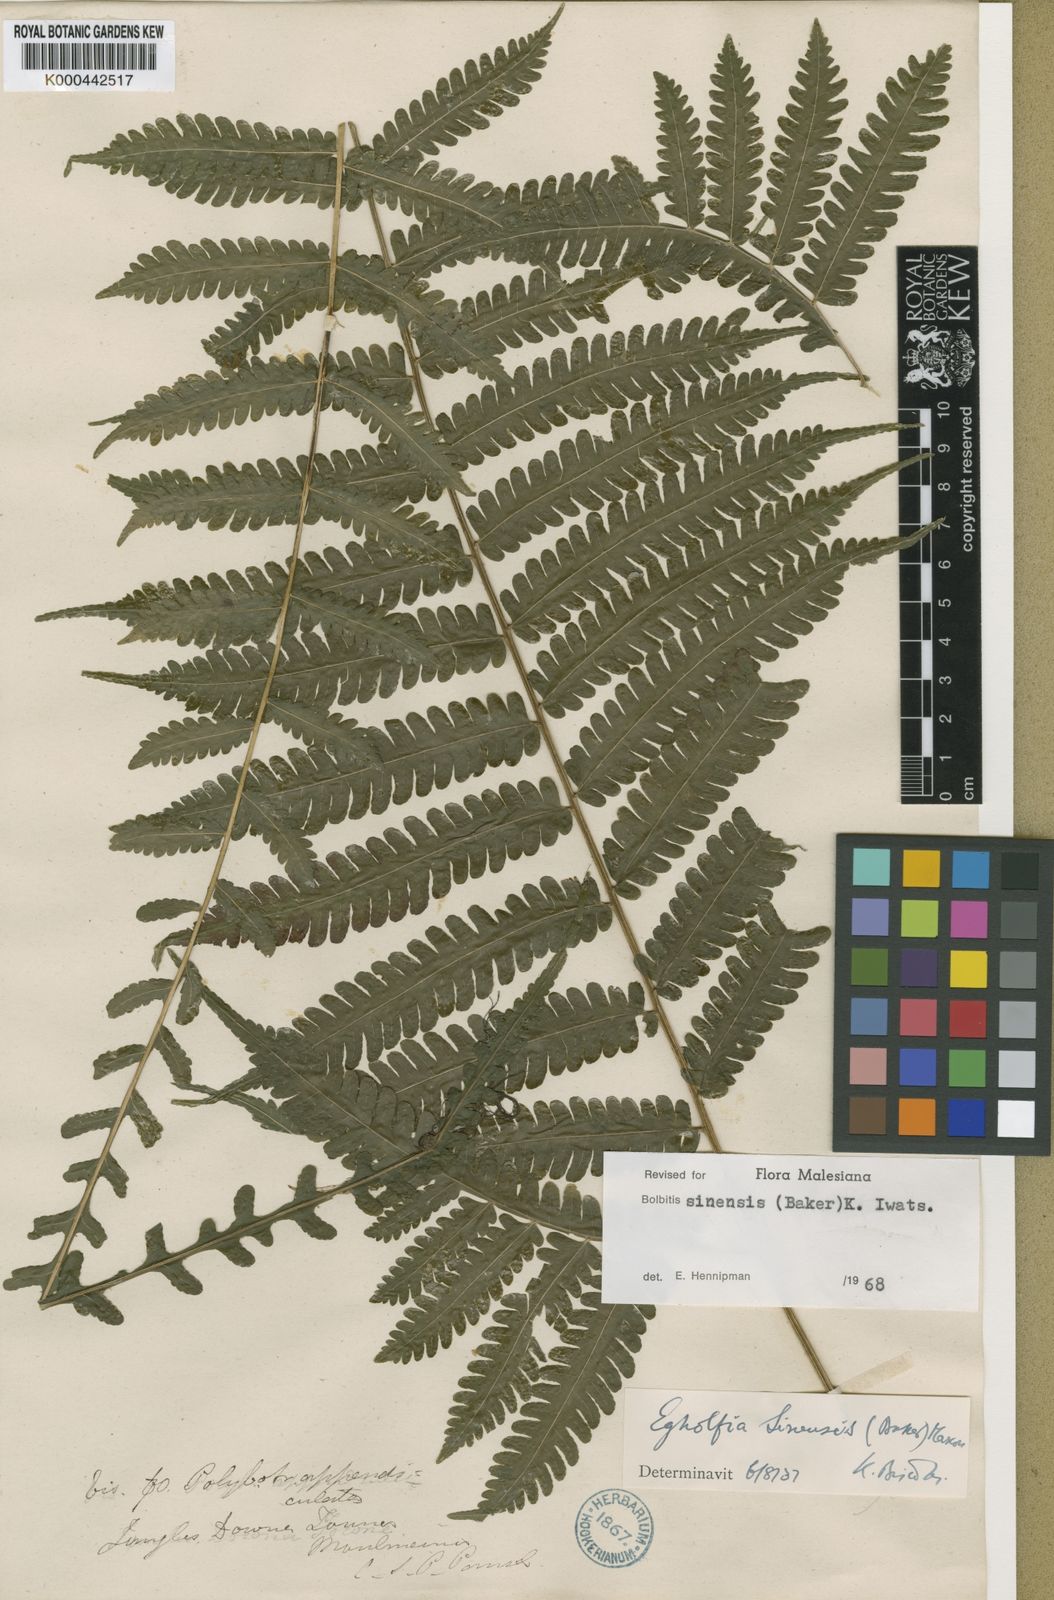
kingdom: Plantae
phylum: Tracheophyta
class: Polypodiopsida
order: Polypodiales
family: Dryopteridaceae
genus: Bolbitis
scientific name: Bolbitis sinensis
